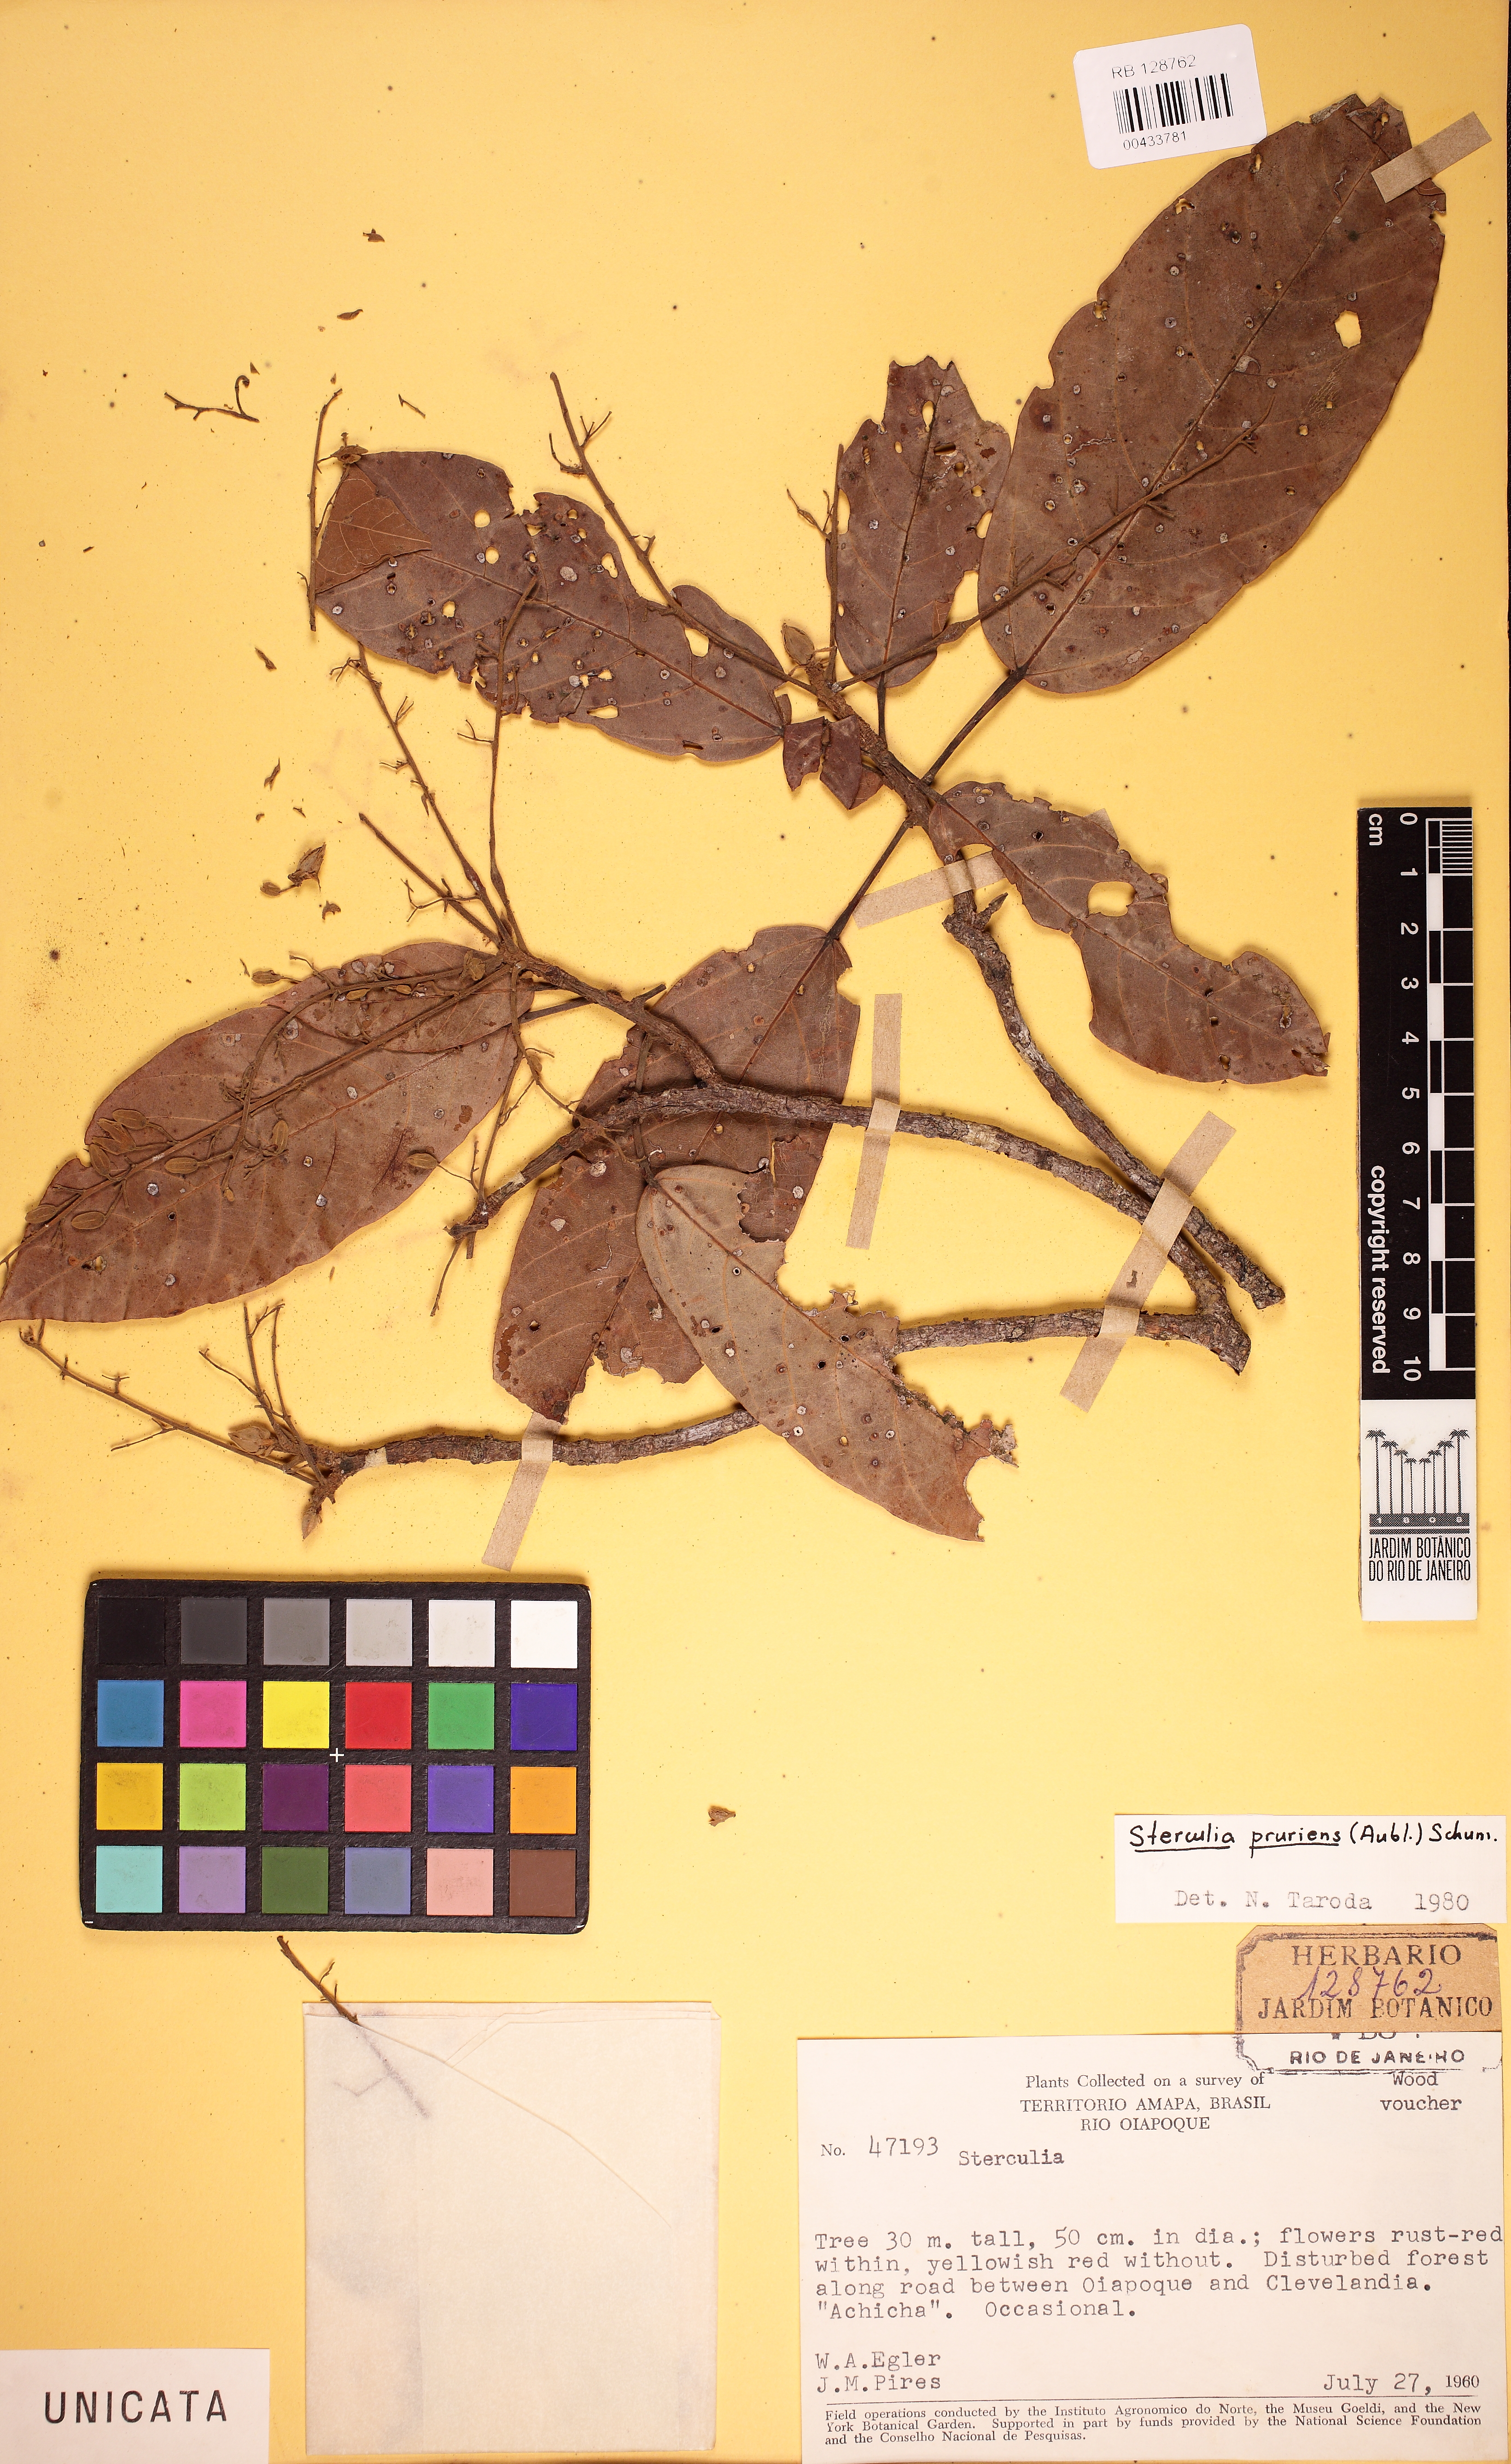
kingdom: Plantae
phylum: Tracheophyta
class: Magnoliopsida
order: Malvales
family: Malvaceae
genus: Sterculia
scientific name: Sterculia pruriens
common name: Grand mahot
